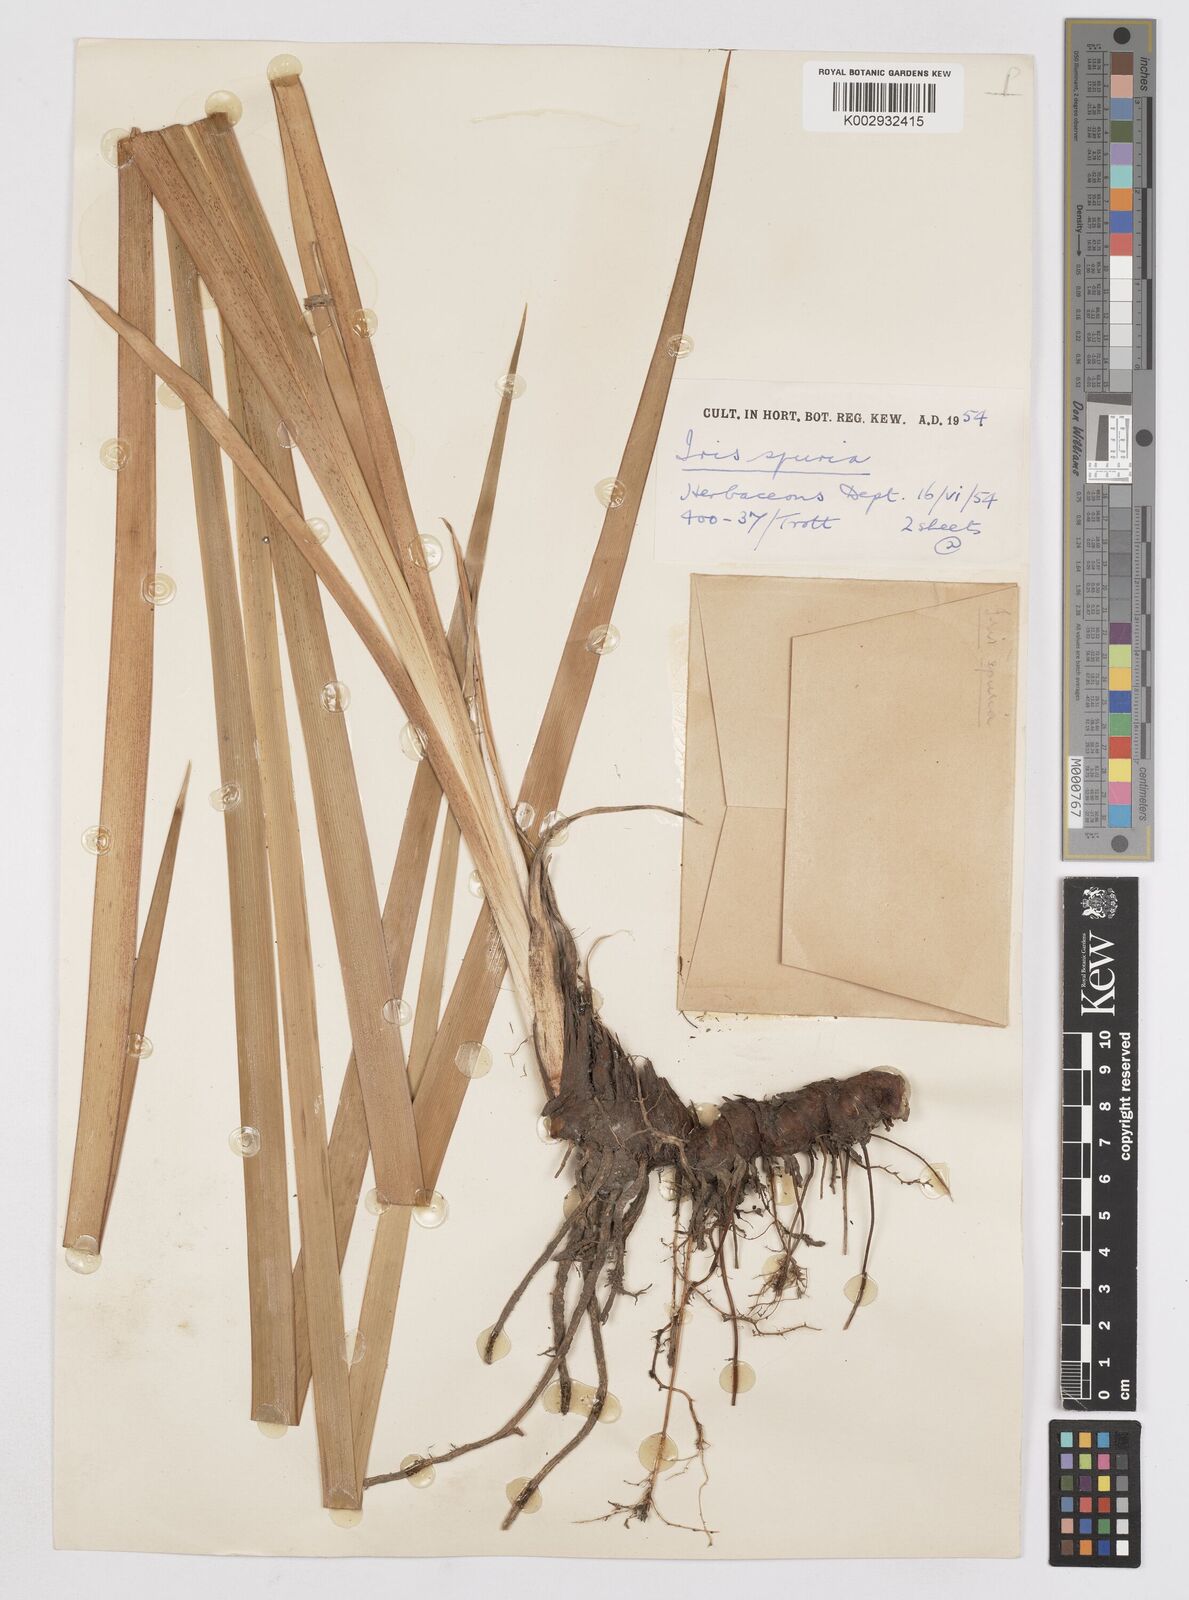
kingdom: Plantae
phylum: Tracheophyta
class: Liliopsida
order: Asparagales
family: Iridaceae
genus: Iris
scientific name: Iris spuria
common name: Blue iris
